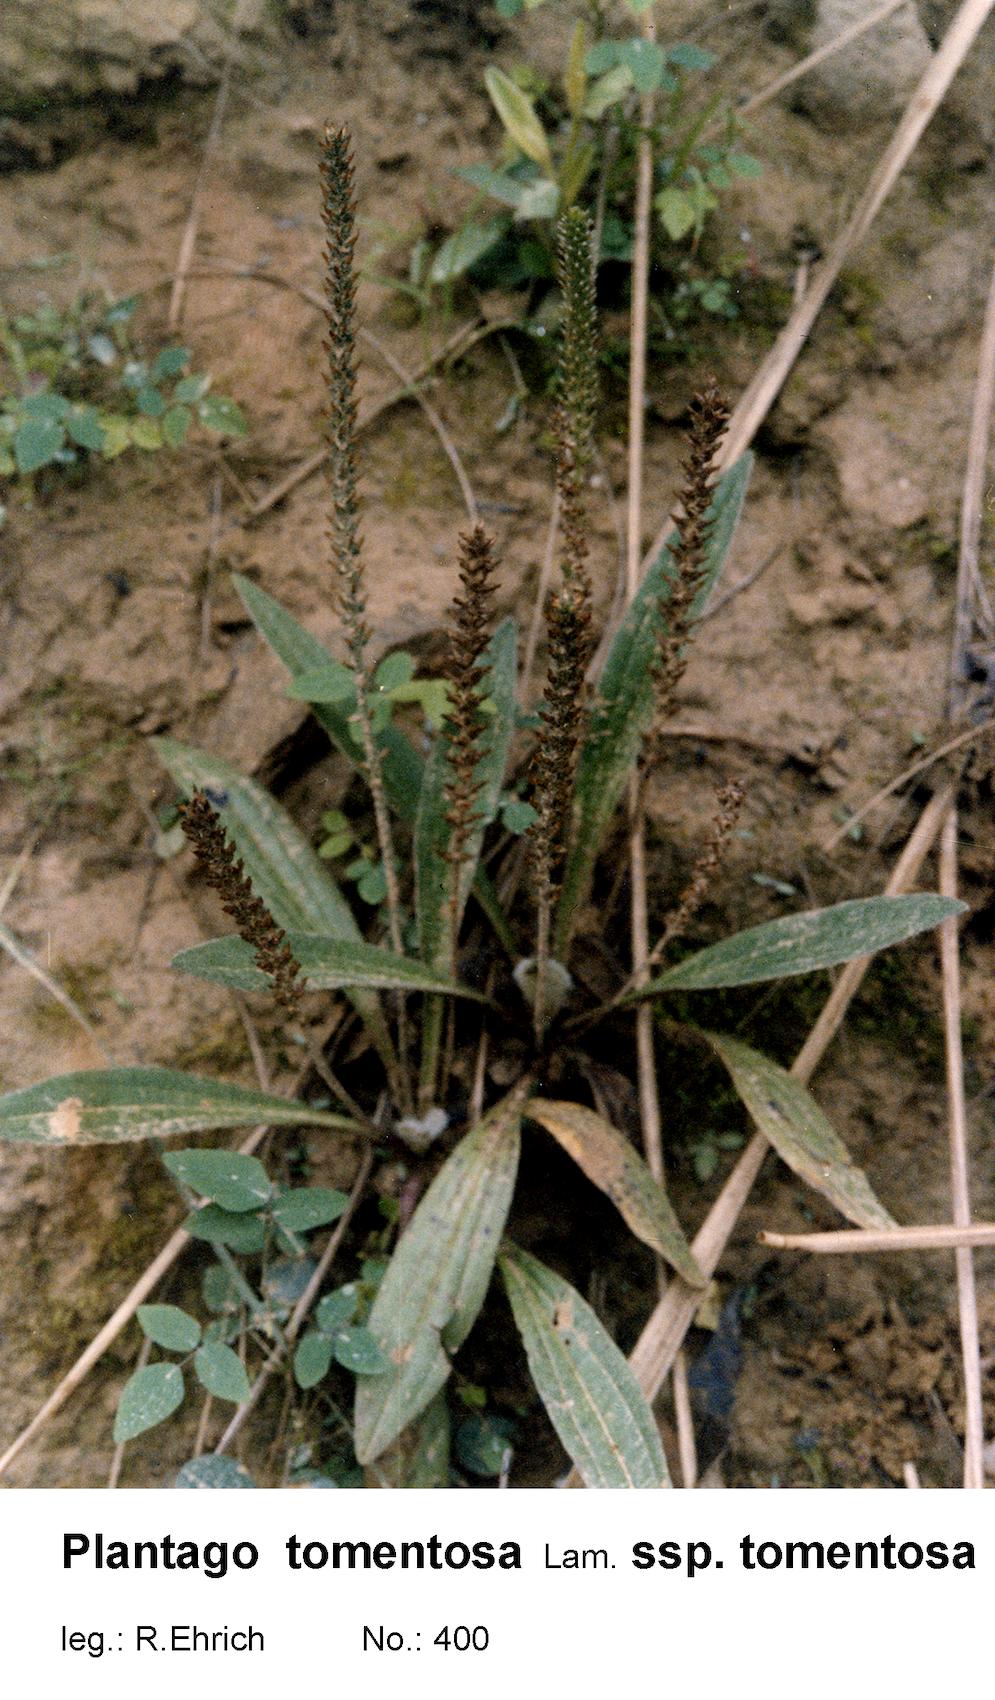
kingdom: Plantae
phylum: Tracheophyta
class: Magnoliopsida
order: Lamiales
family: Plantaginaceae
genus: Plantago
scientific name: Plantago tomentosa
